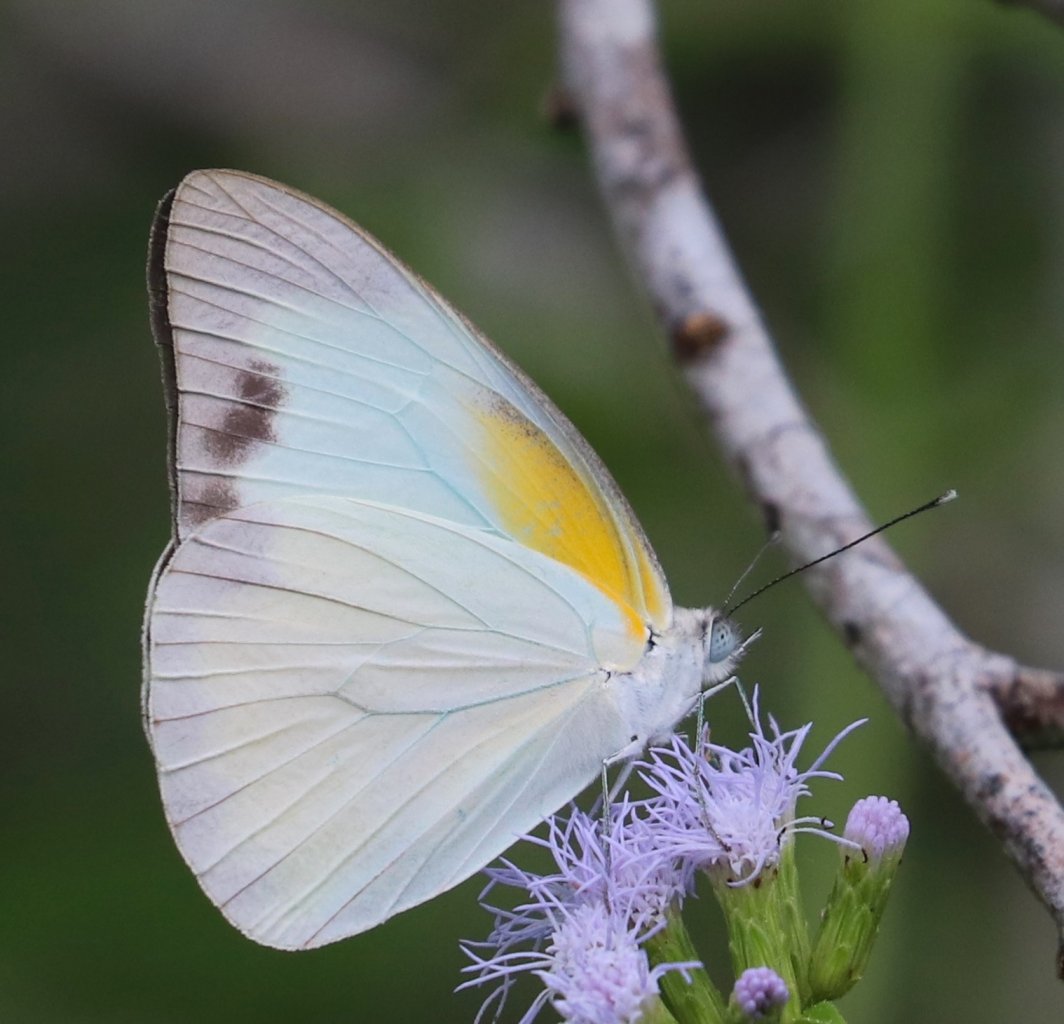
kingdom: Animalia
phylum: Arthropoda
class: Insecta
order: Lepidoptera
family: Pieridae
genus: Glutophrissa
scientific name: Glutophrissa drusilla
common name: Florida White
